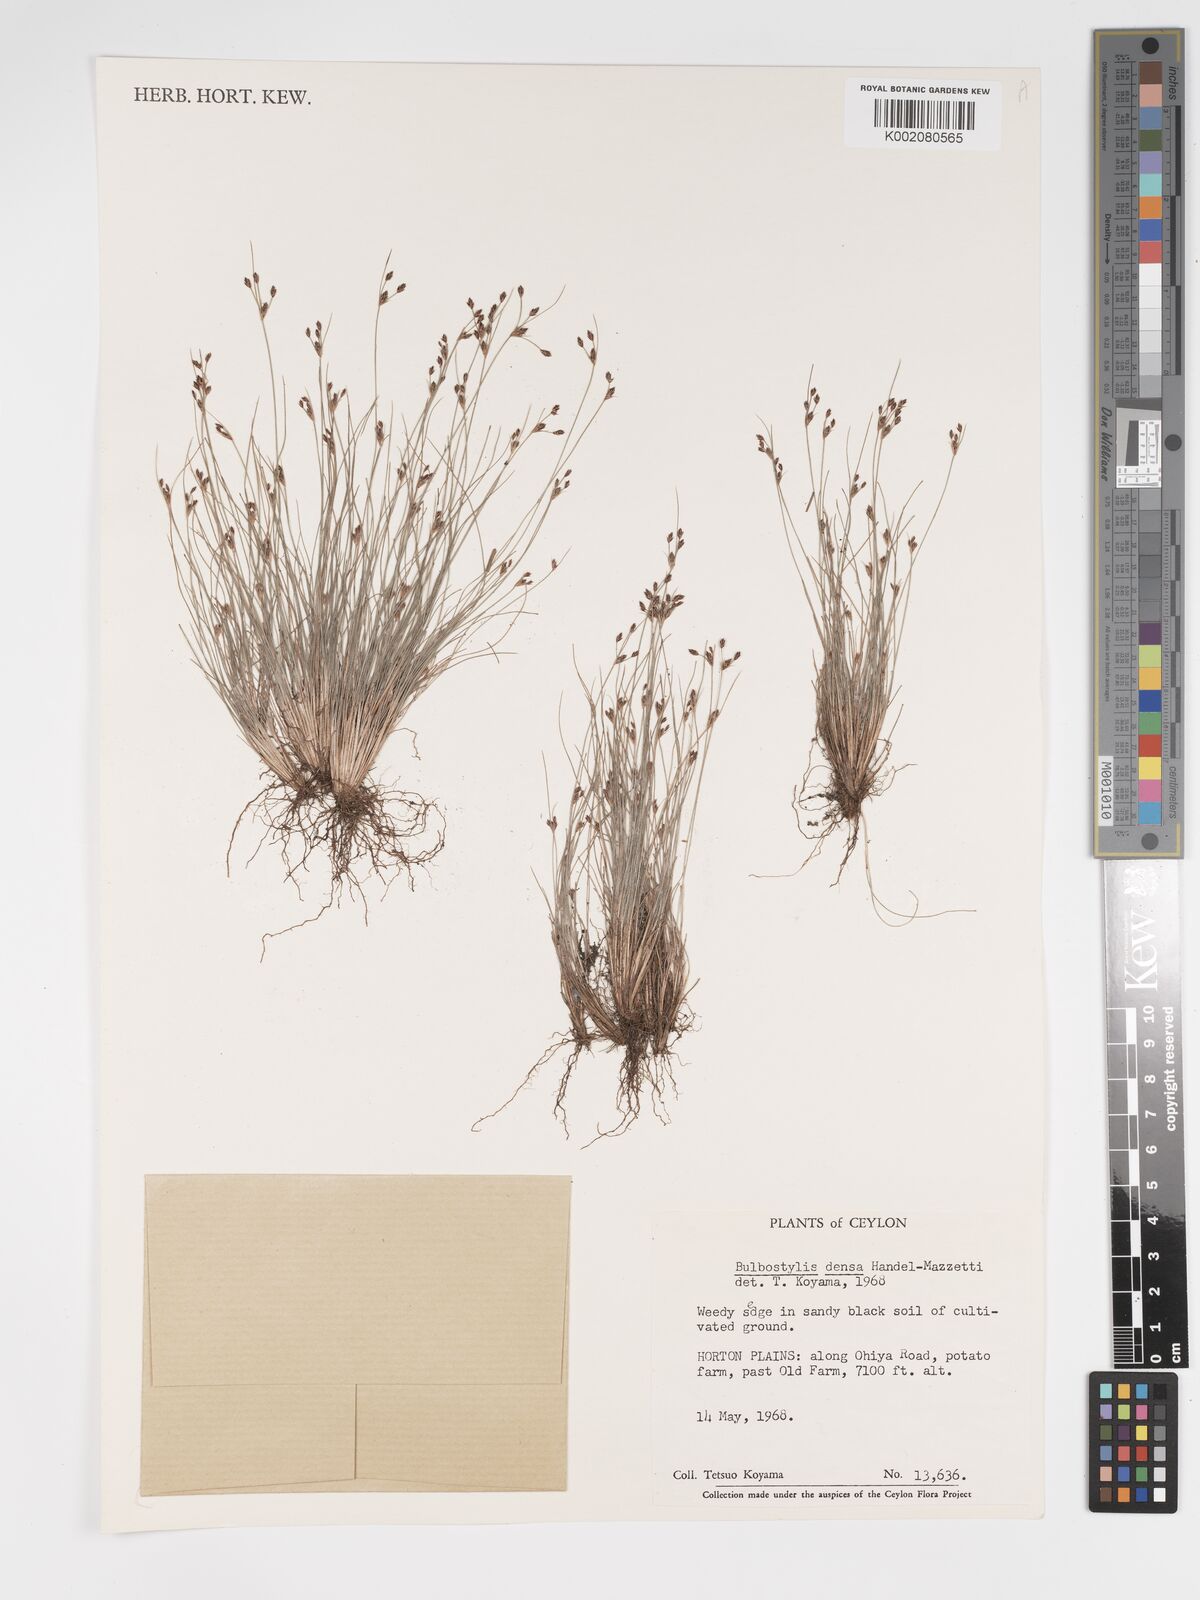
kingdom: Plantae
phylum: Tracheophyta
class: Liliopsida
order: Poales
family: Cyperaceae
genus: Bulbostylis
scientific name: Bulbostylis densa
